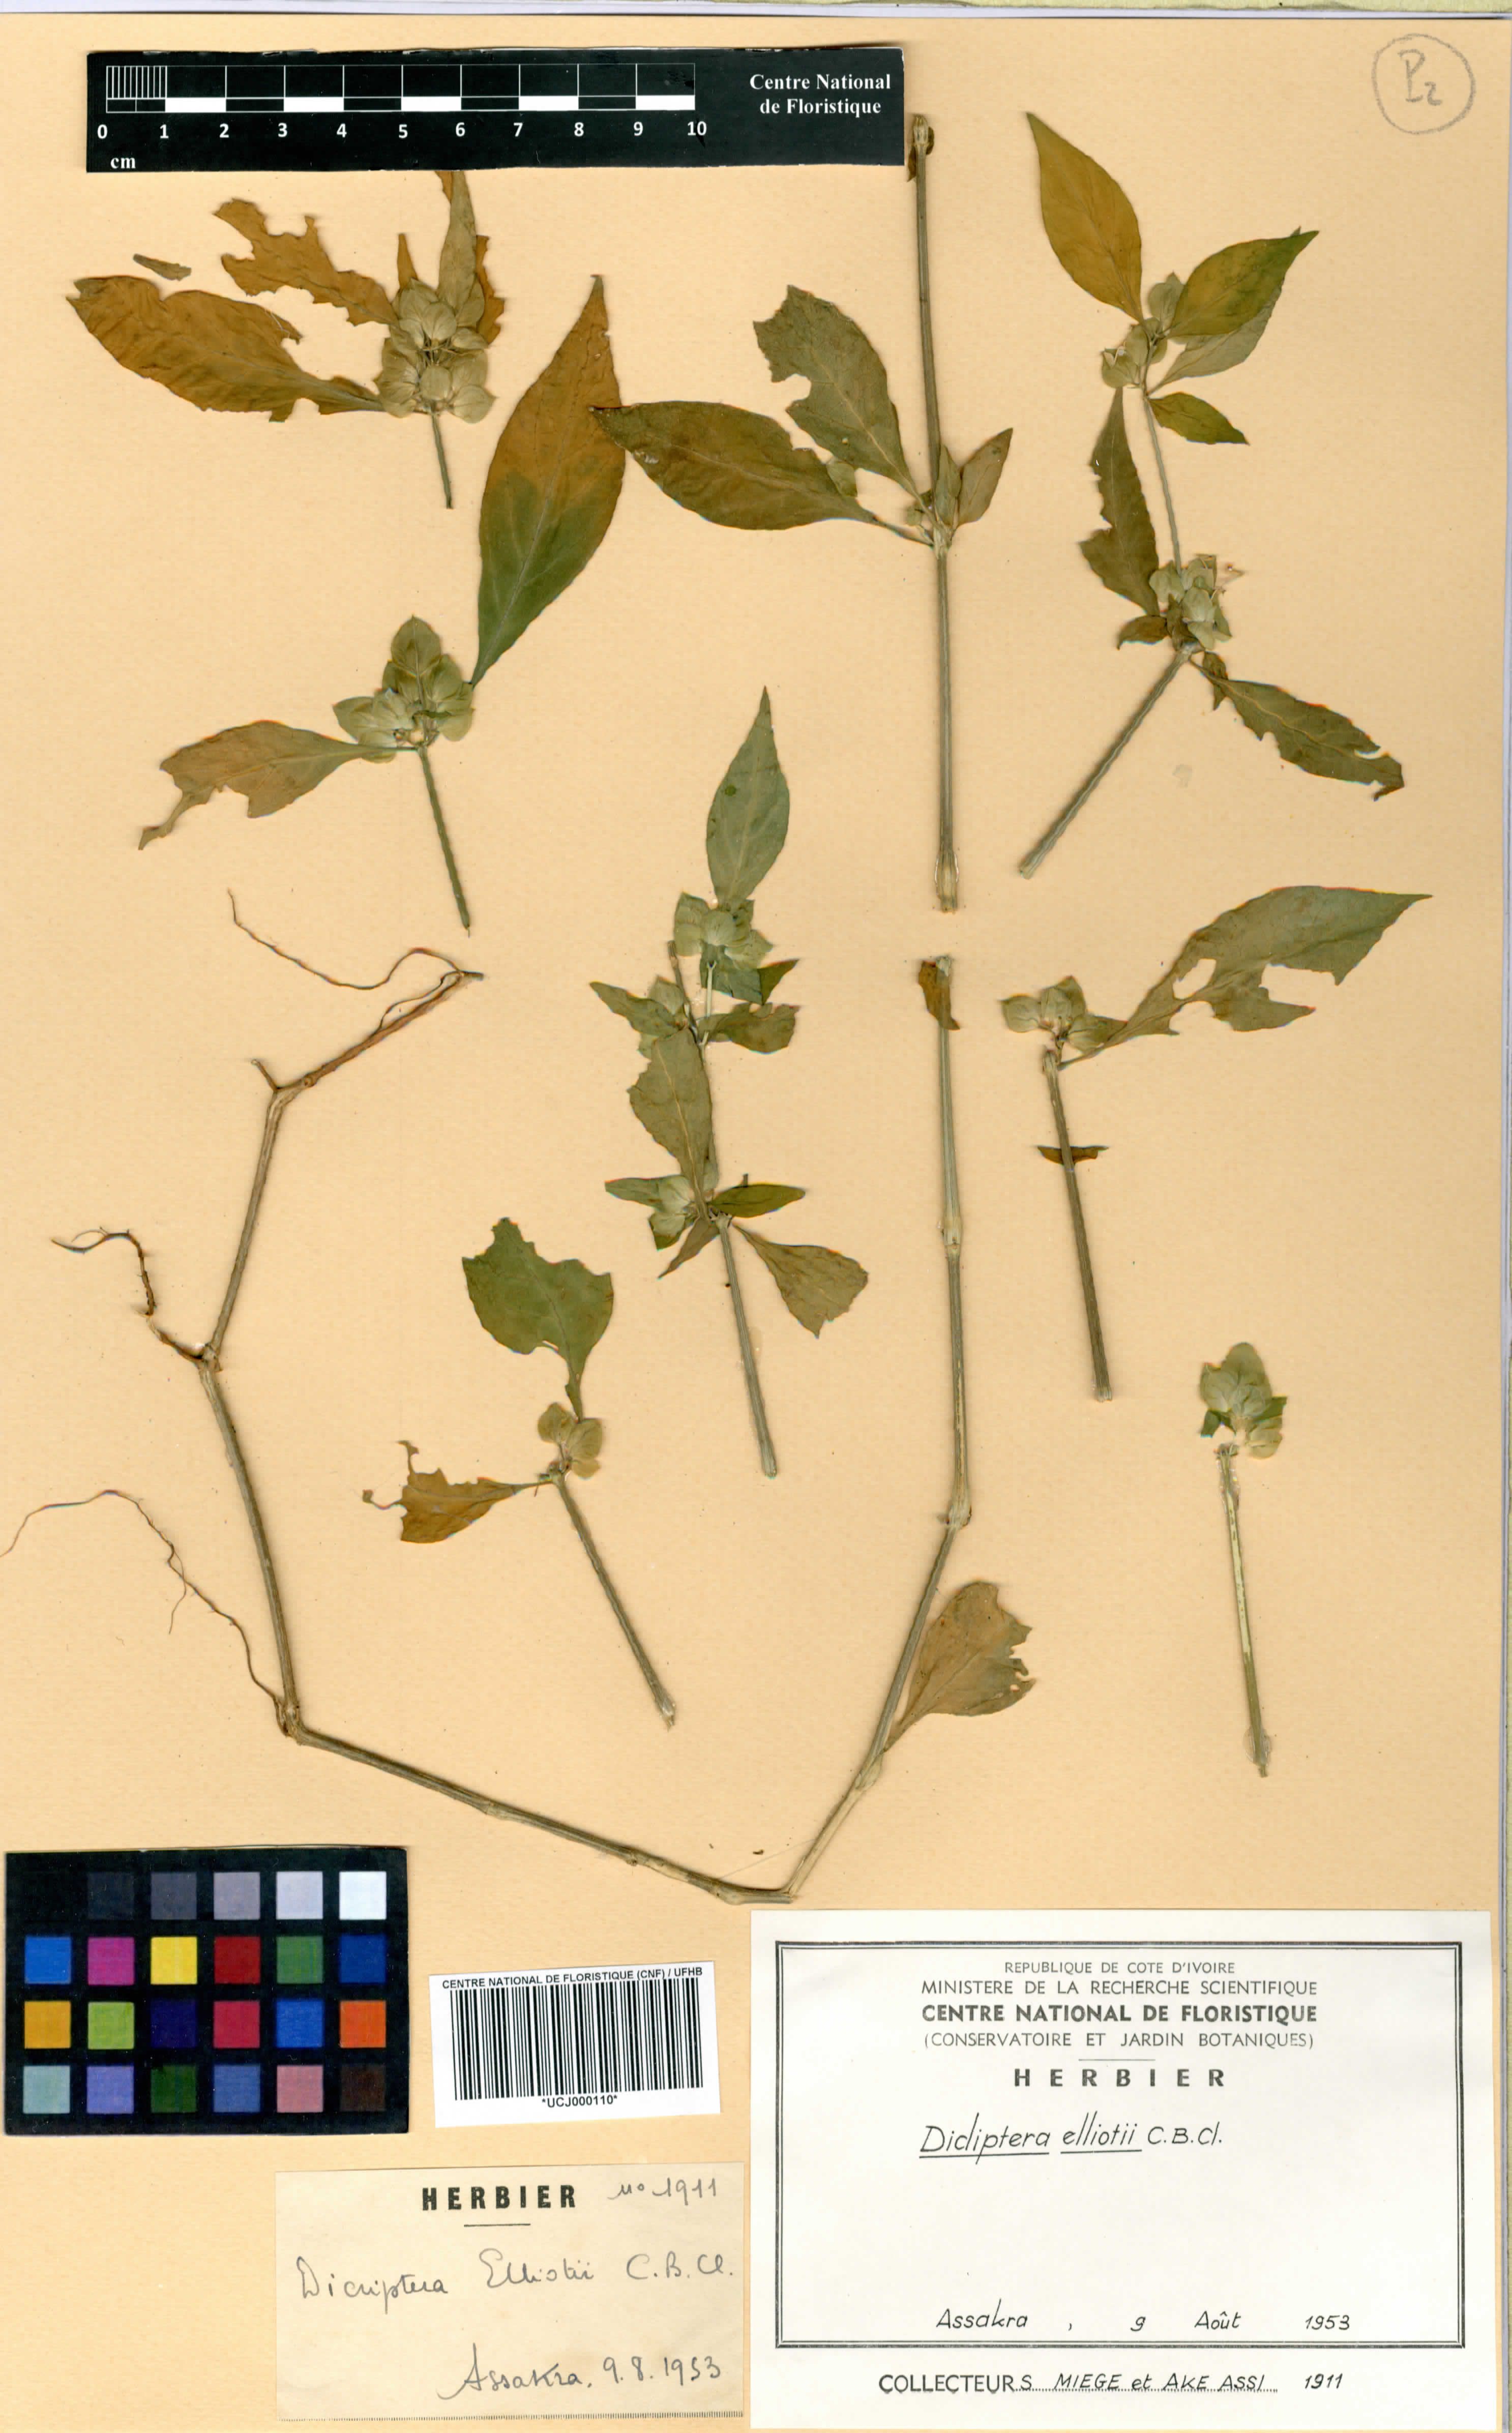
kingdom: Plantae
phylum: Tracheophyta
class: Magnoliopsida
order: Lamiales
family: Acanthaceae
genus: Dicliptera
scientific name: Dicliptera elliotii
